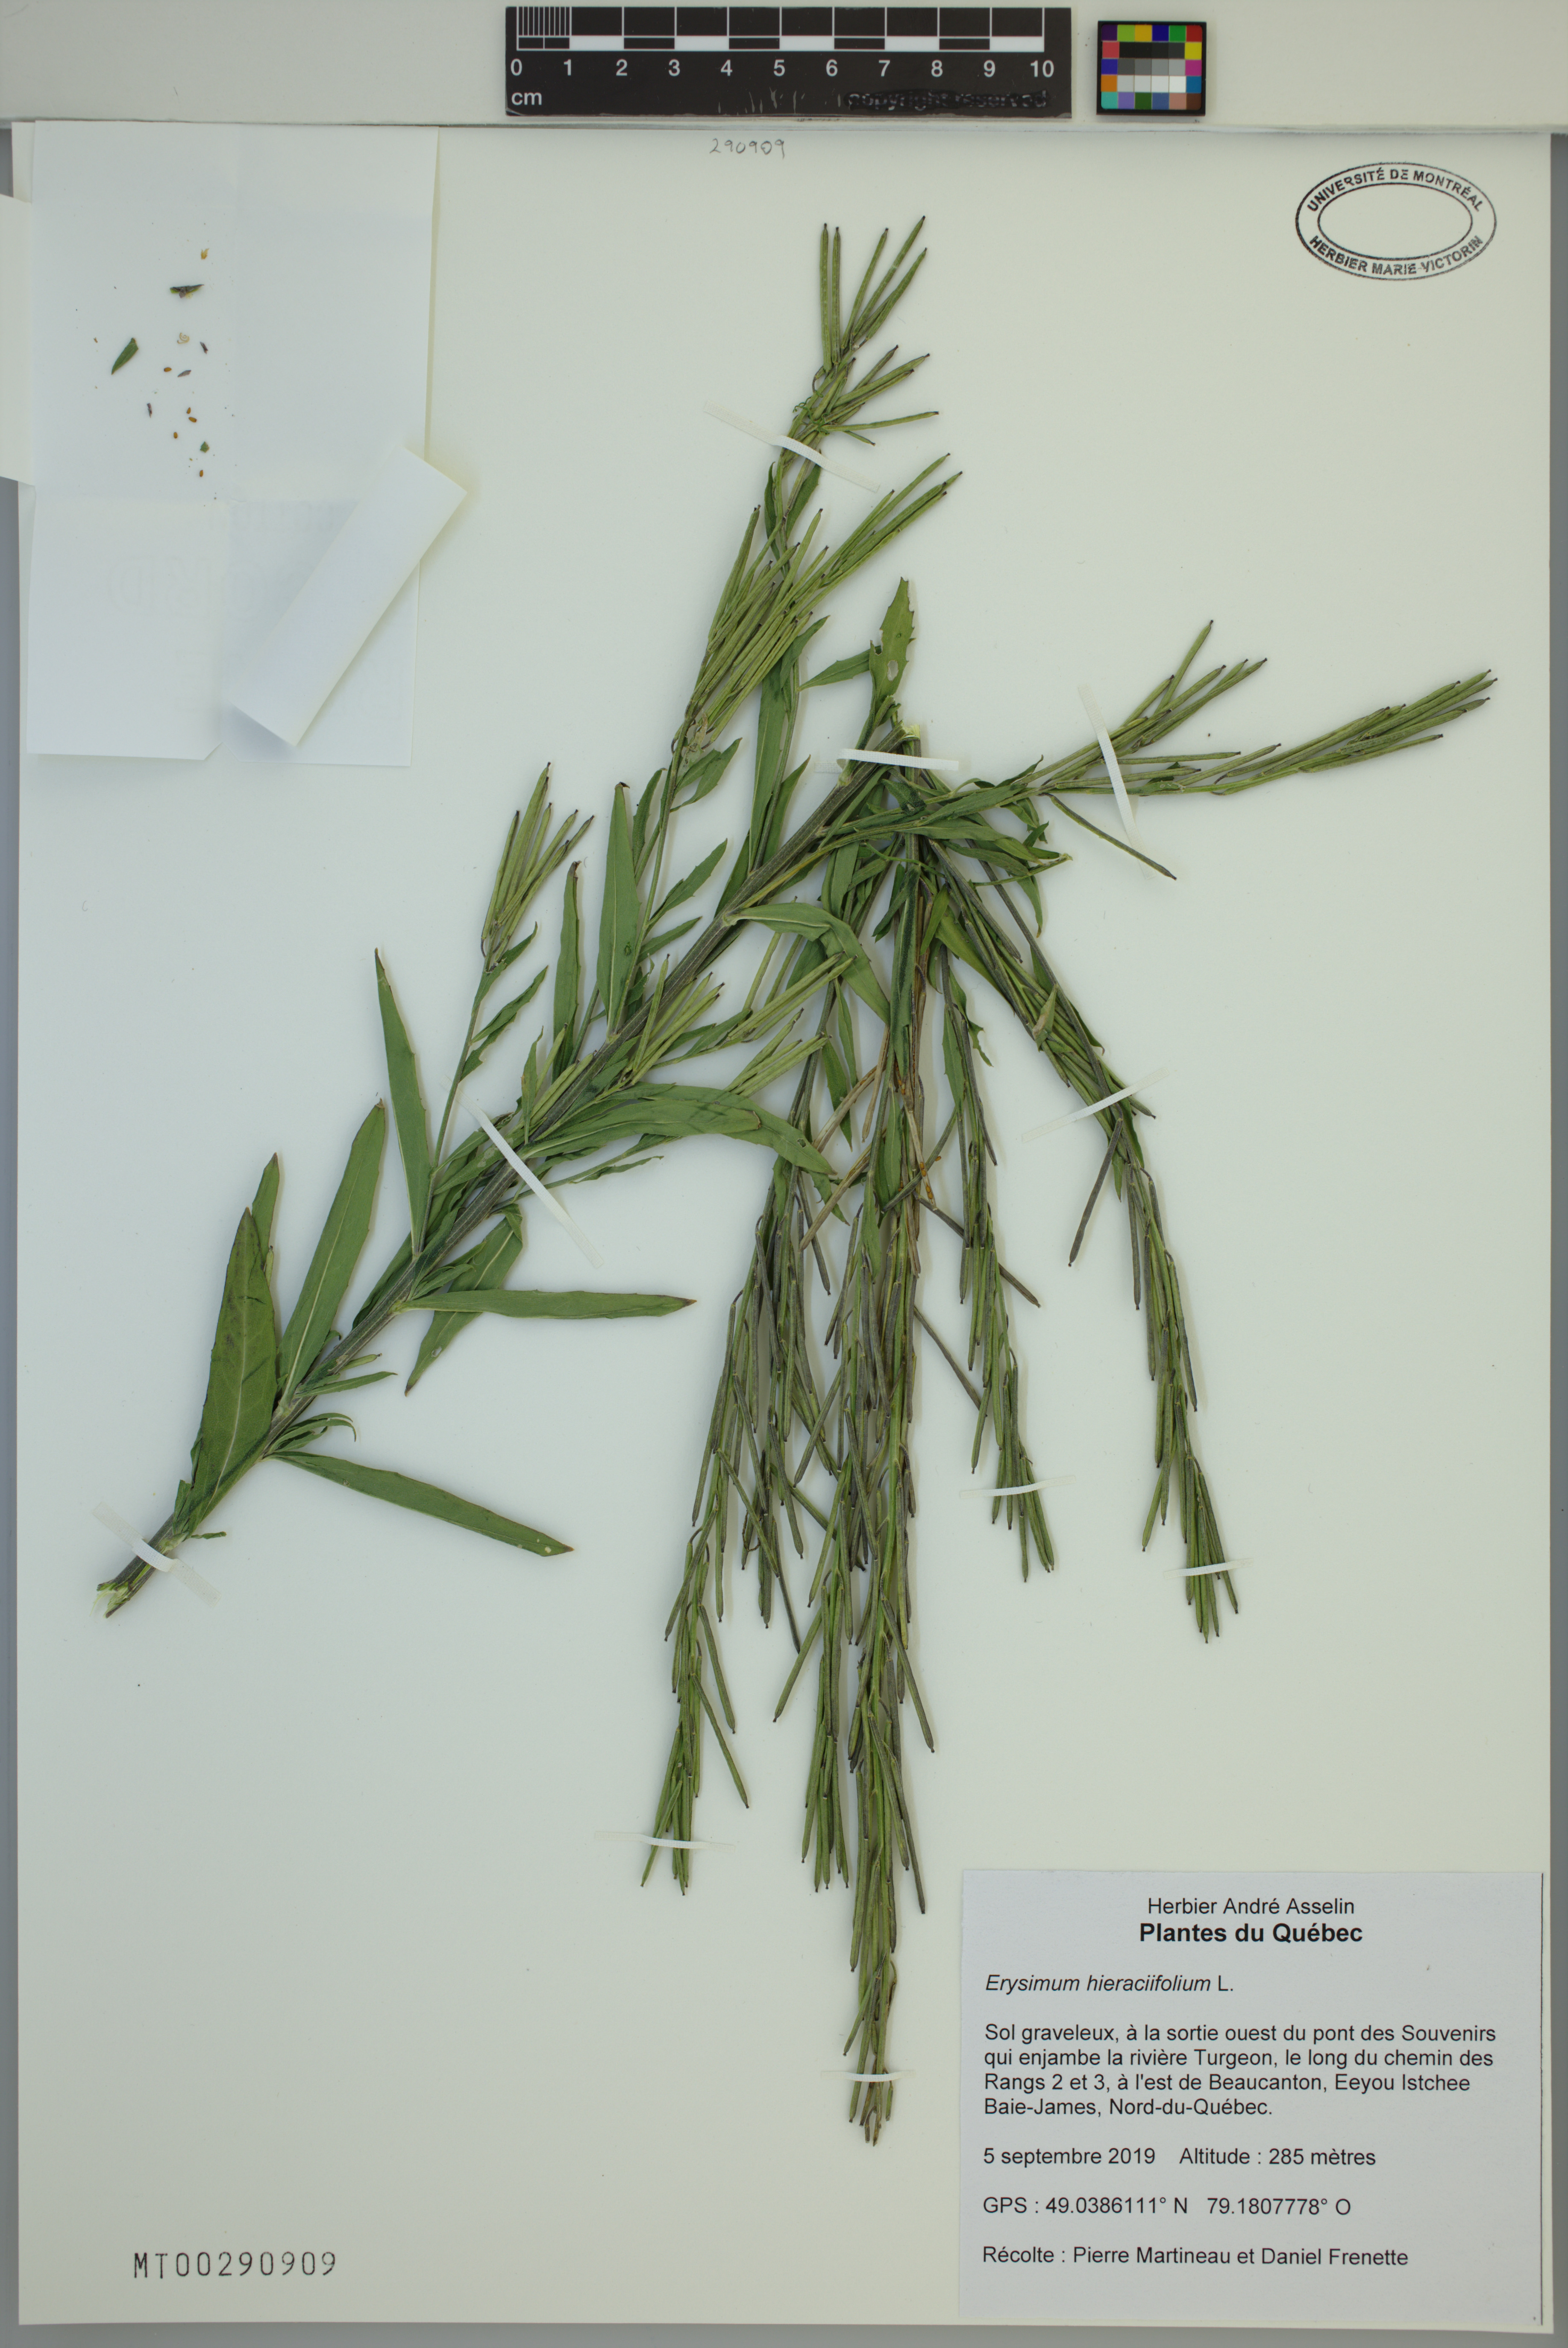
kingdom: Plantae
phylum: Tracheophyta
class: Magnoliopsida
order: Brassicales
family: Brassicaceae
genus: Erysimum
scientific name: Erysimum hieraciifolium
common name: European wallflower
